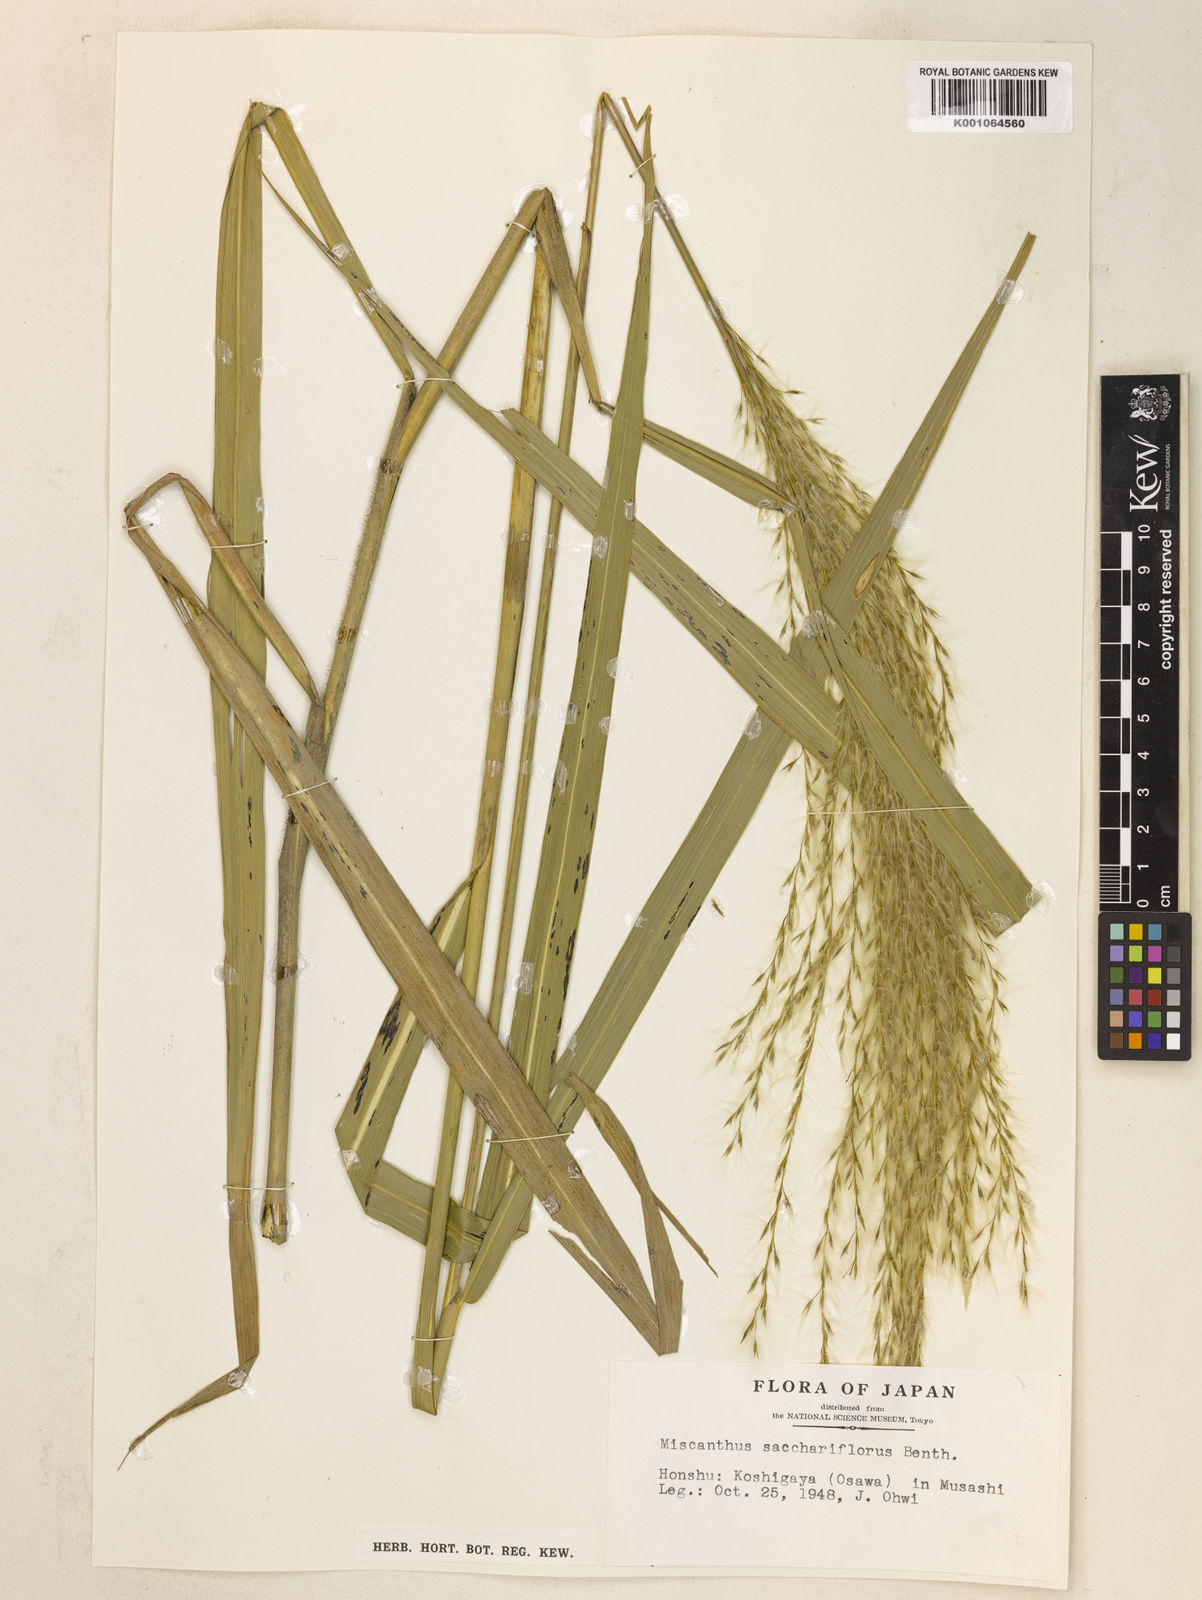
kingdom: Plantae
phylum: Tracheophyta
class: Liliopsida
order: Poales
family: Poaceae
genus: Miscanthus
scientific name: Miscanthus
